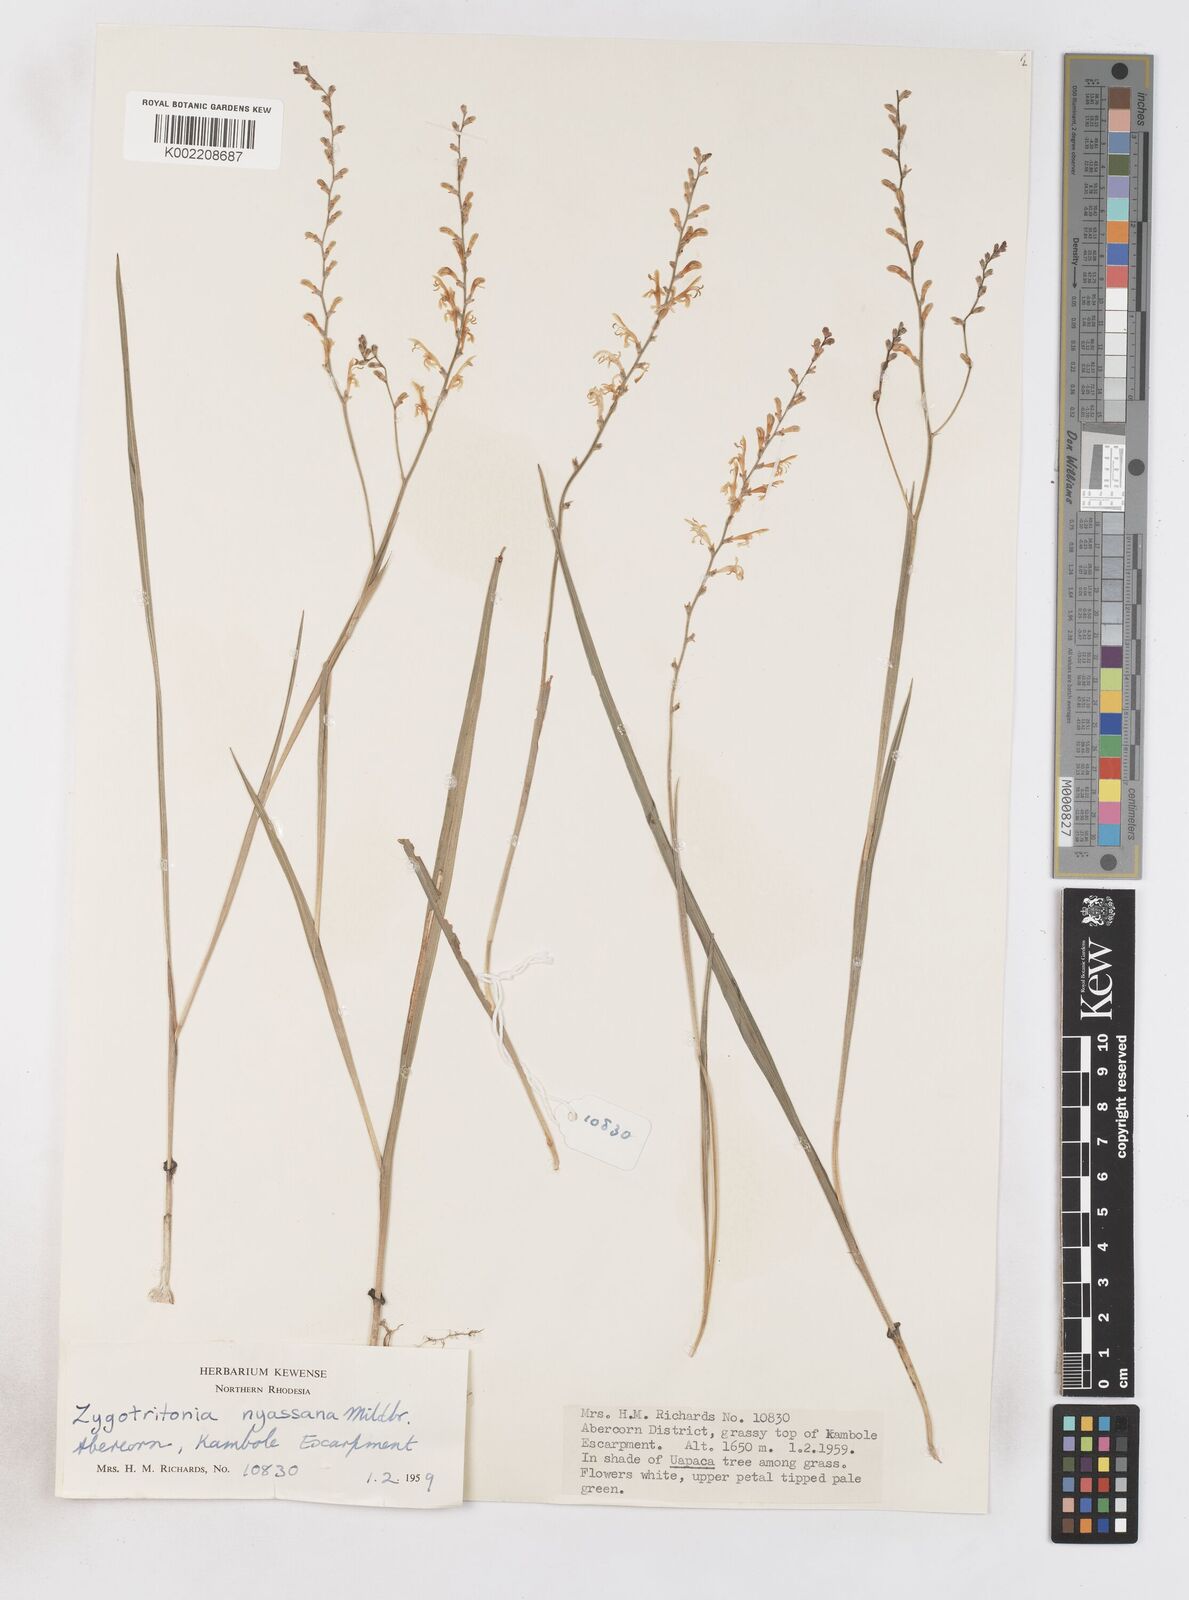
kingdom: Plantae
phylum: Tracheophyta
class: Liliopsida
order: Asparagales
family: Iridaceae
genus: Zygotritonia
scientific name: Zygotritonia nyassana
